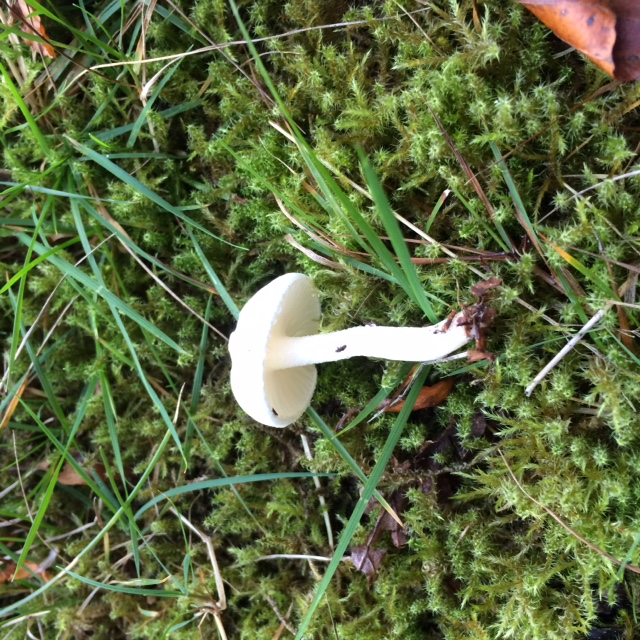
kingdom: Fungi
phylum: Basidiomycota
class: Agaricomycetes
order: Agaricales
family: Hygrophoraceae
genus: Hygrophorus
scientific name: Hygrophorus eburneus
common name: elfenbens-sneglehat
